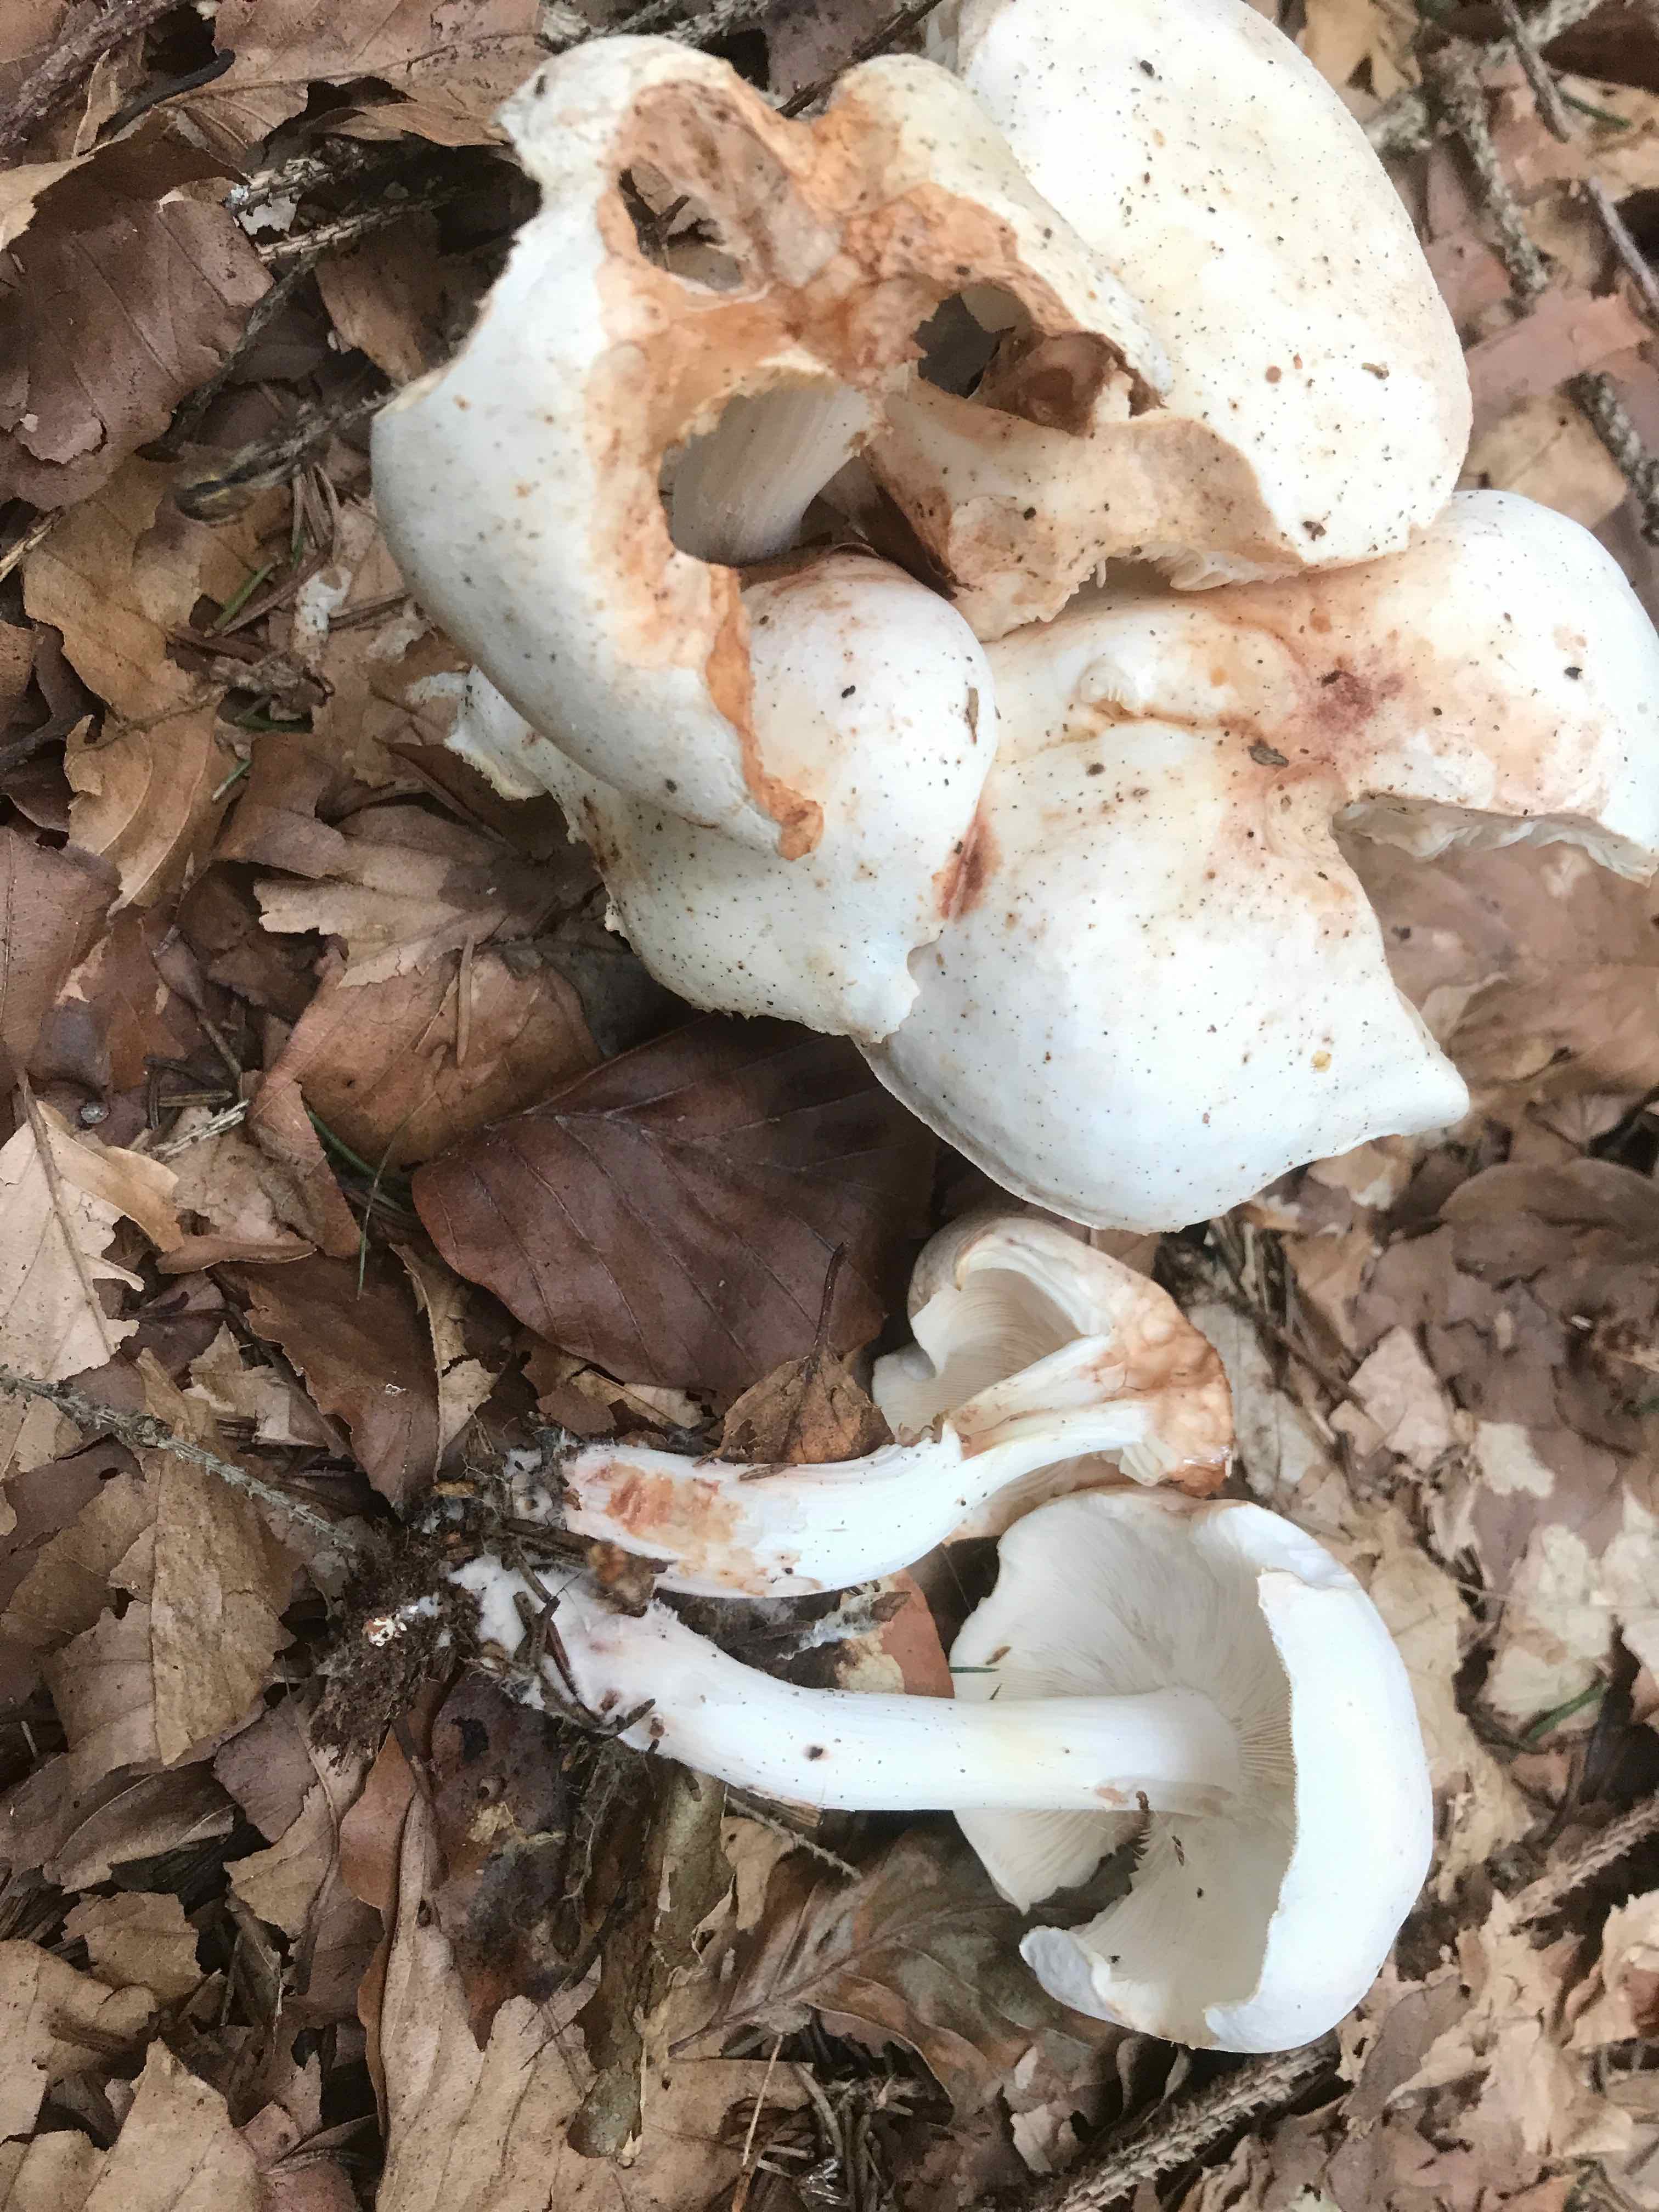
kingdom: Fungi
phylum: Basidiomycota
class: Agaricomycetes
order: Agaricales
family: Omphalotaceae
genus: Rhodocollybia
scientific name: Rhodocollybia maculata
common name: plettet fladhat
